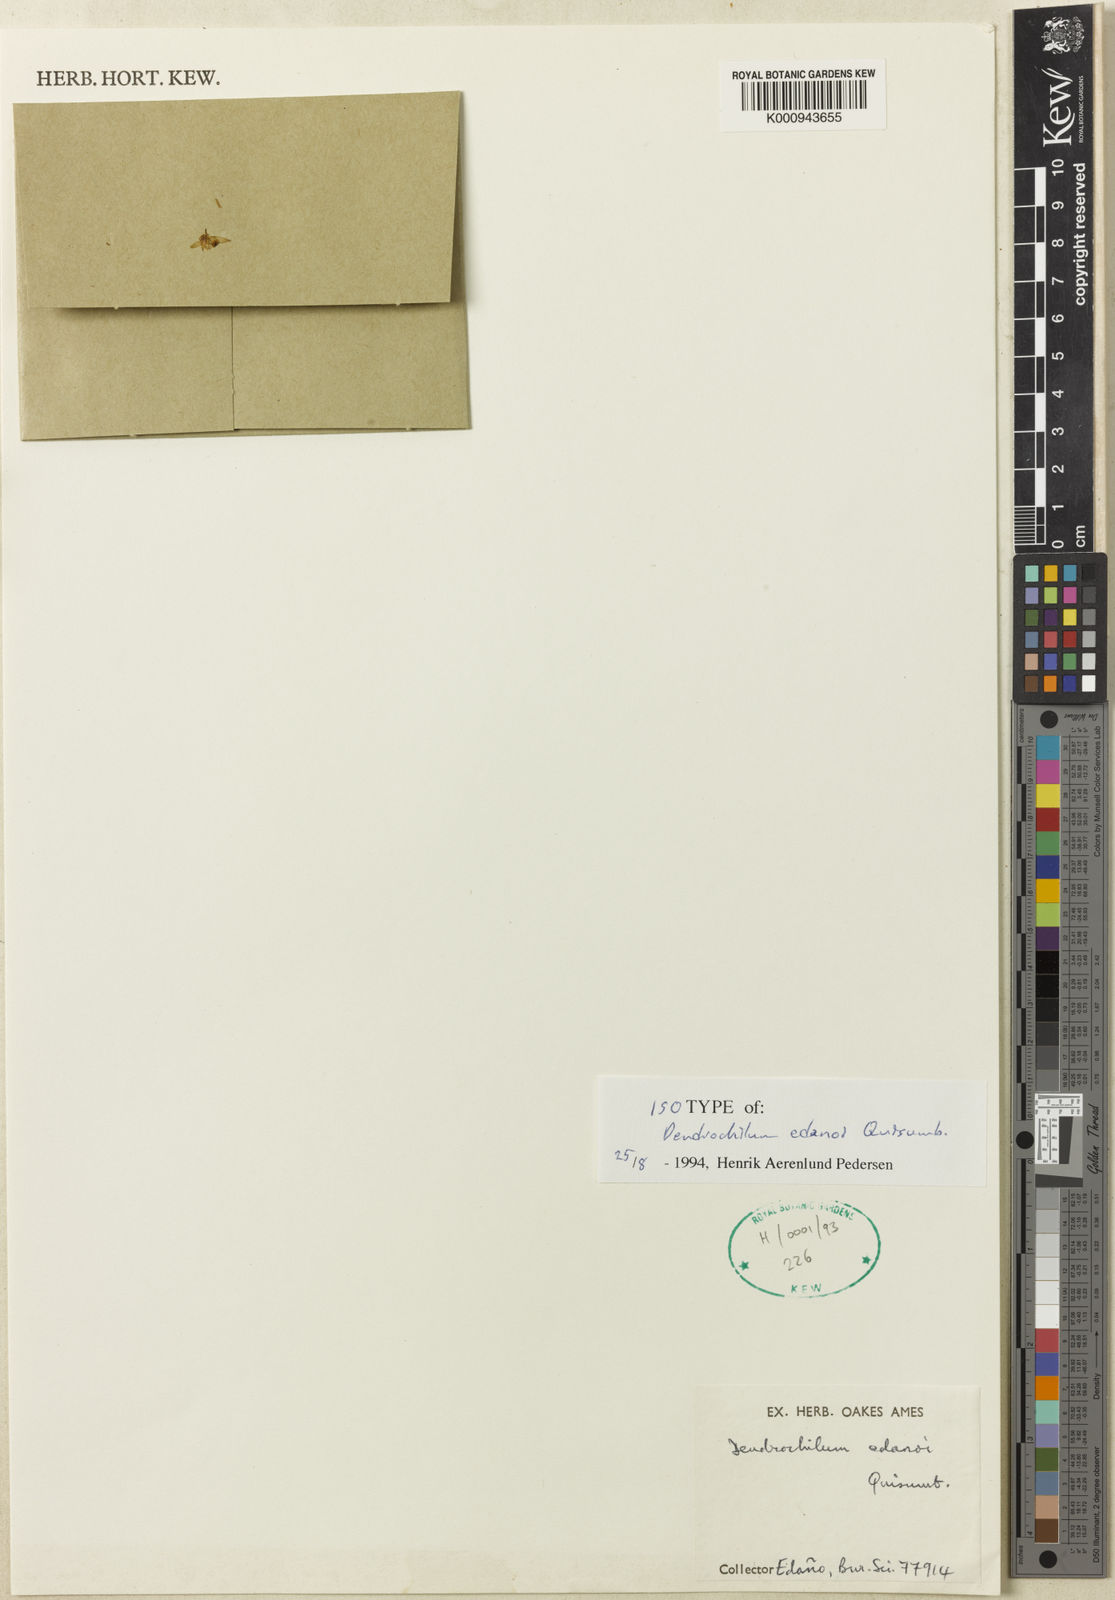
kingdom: Plantae
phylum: Tracheophyta
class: Liliopsida
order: Asparagales
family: Orchidaceae
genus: Coelogyne
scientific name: Coelogyne cymbiformis
